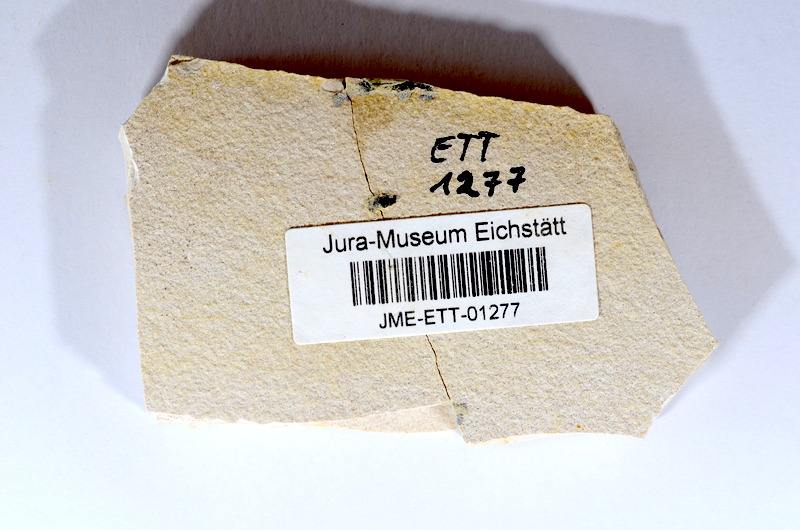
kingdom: Animalia
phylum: Chordata
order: Salmoniformes
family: Orthogonikleithridae
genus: Orthogonikleithrus
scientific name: Orthogonikleithrus hoelli
